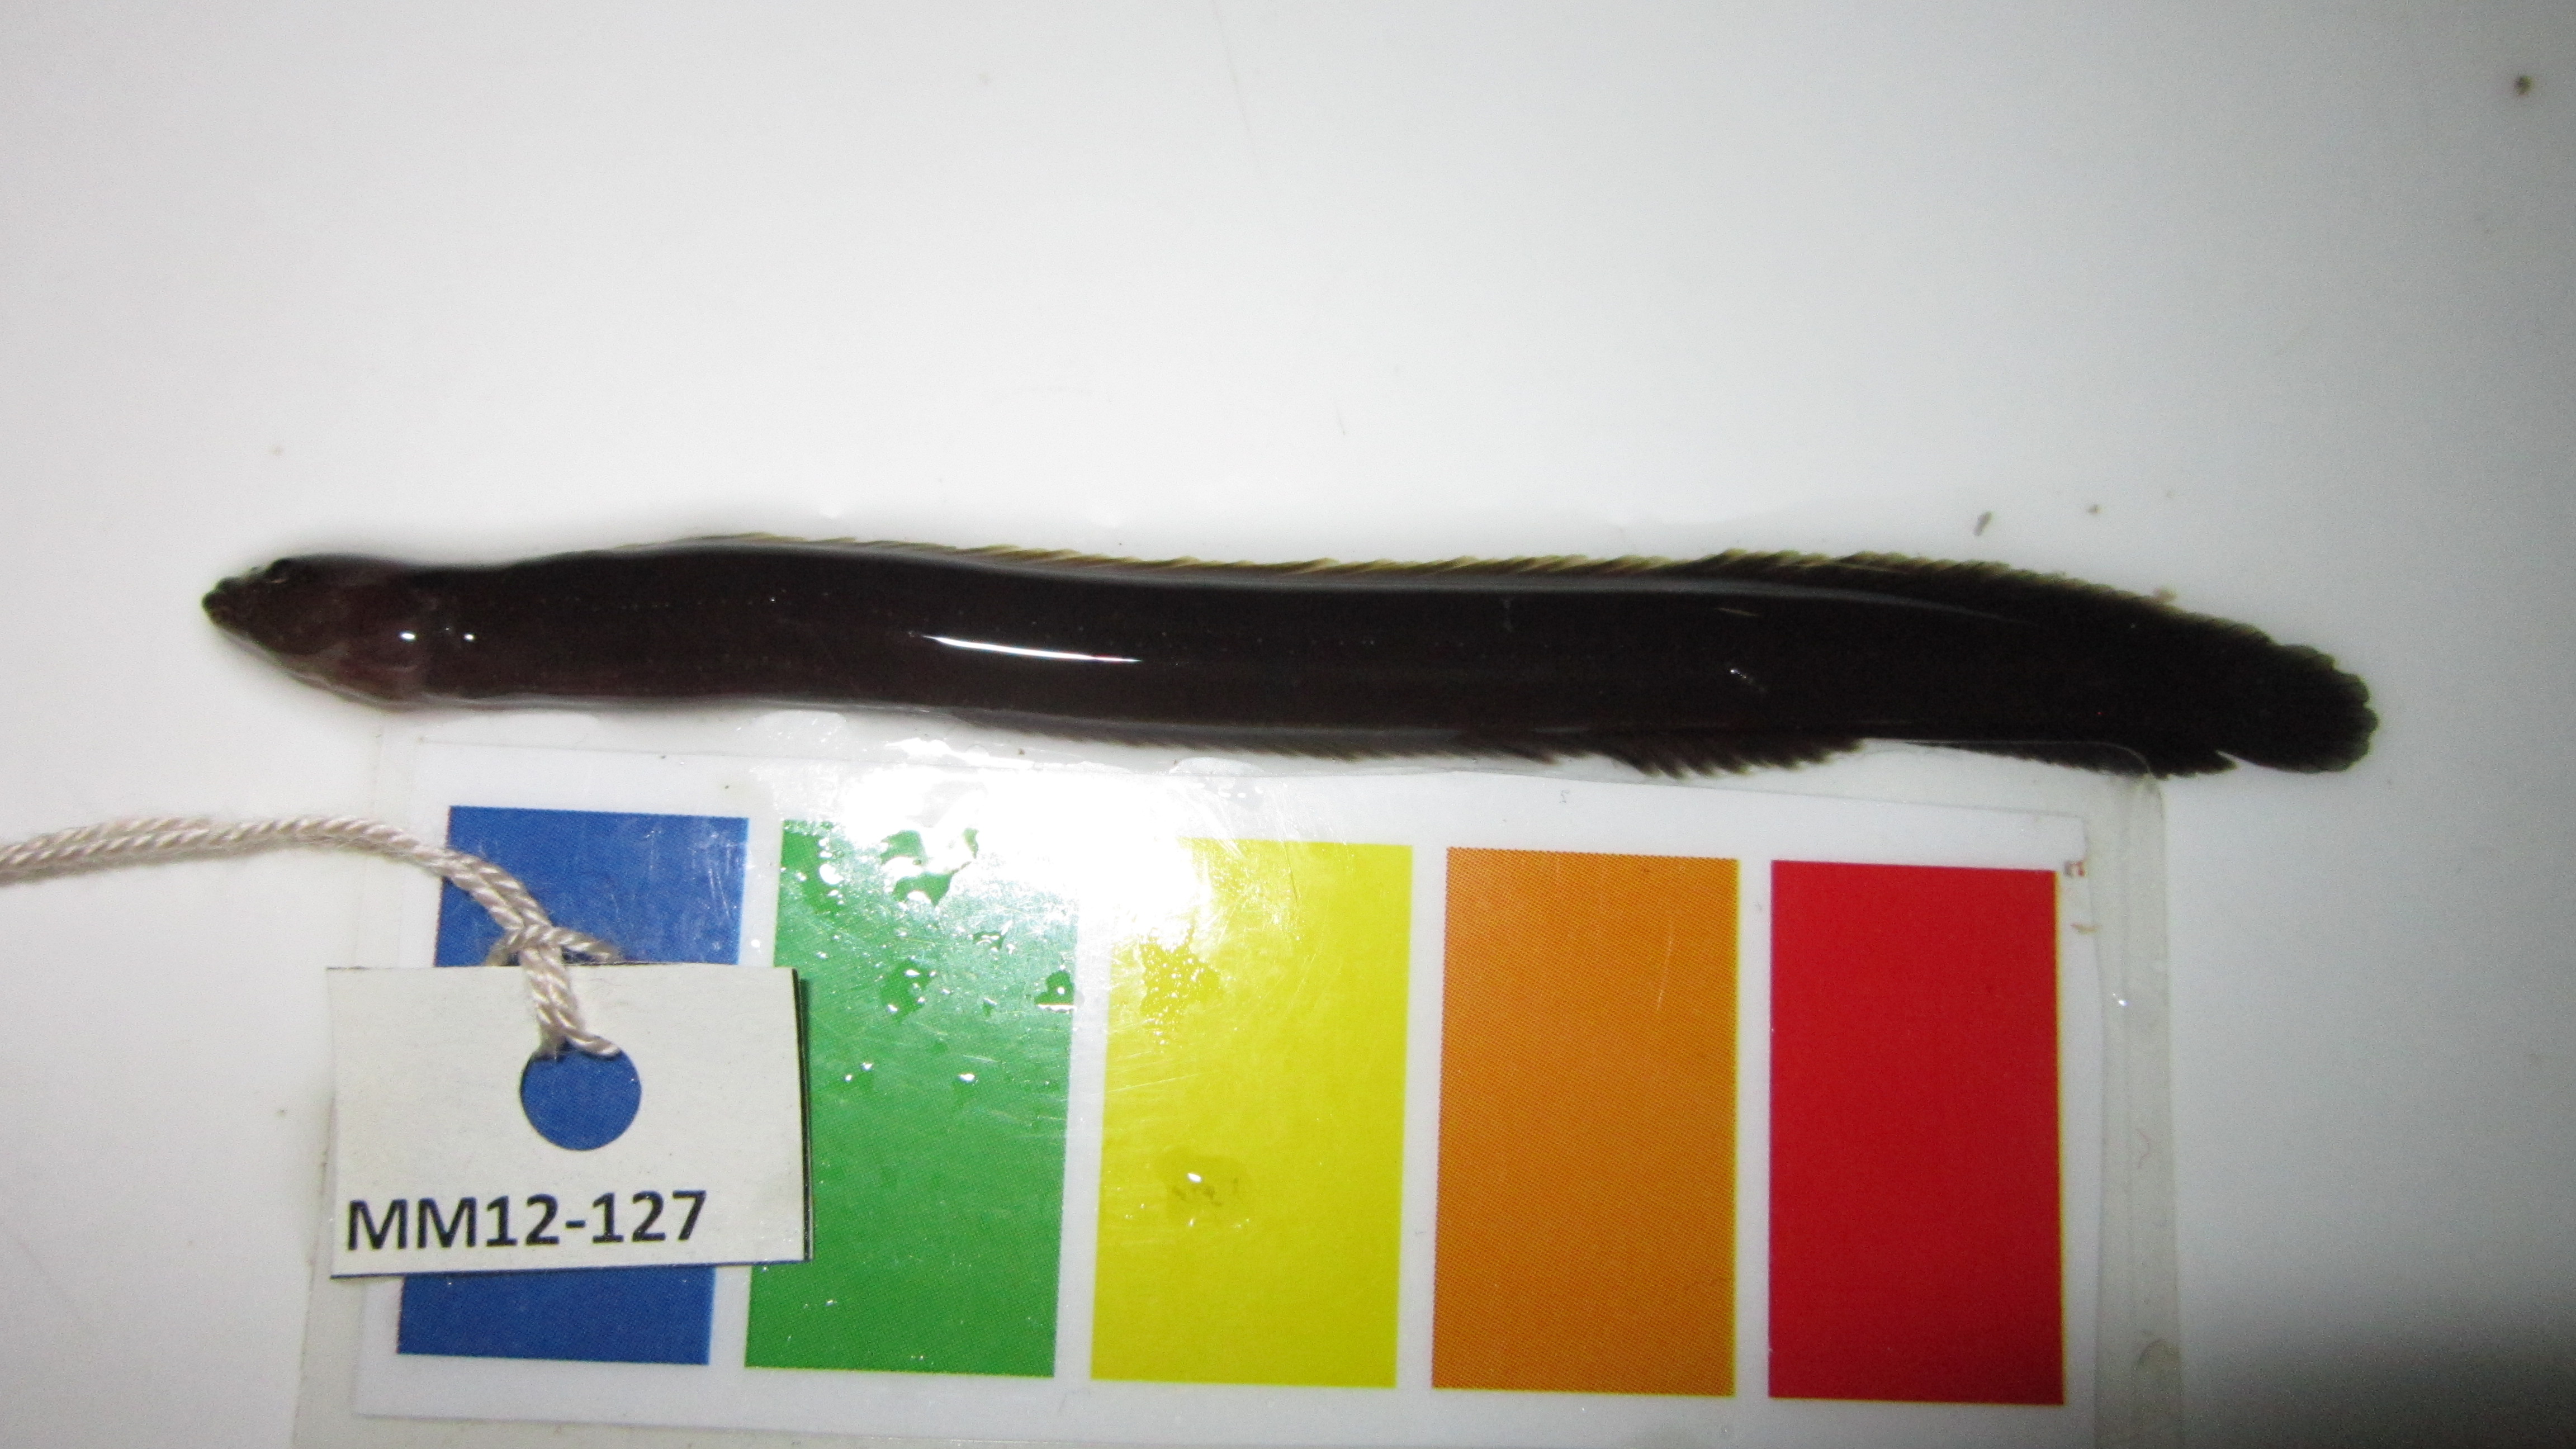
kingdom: Animalia
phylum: Chordata
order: Perciformes
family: Pseudochromidae
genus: Halidesmus
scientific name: Halidesmus scapularis
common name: Snakelet
